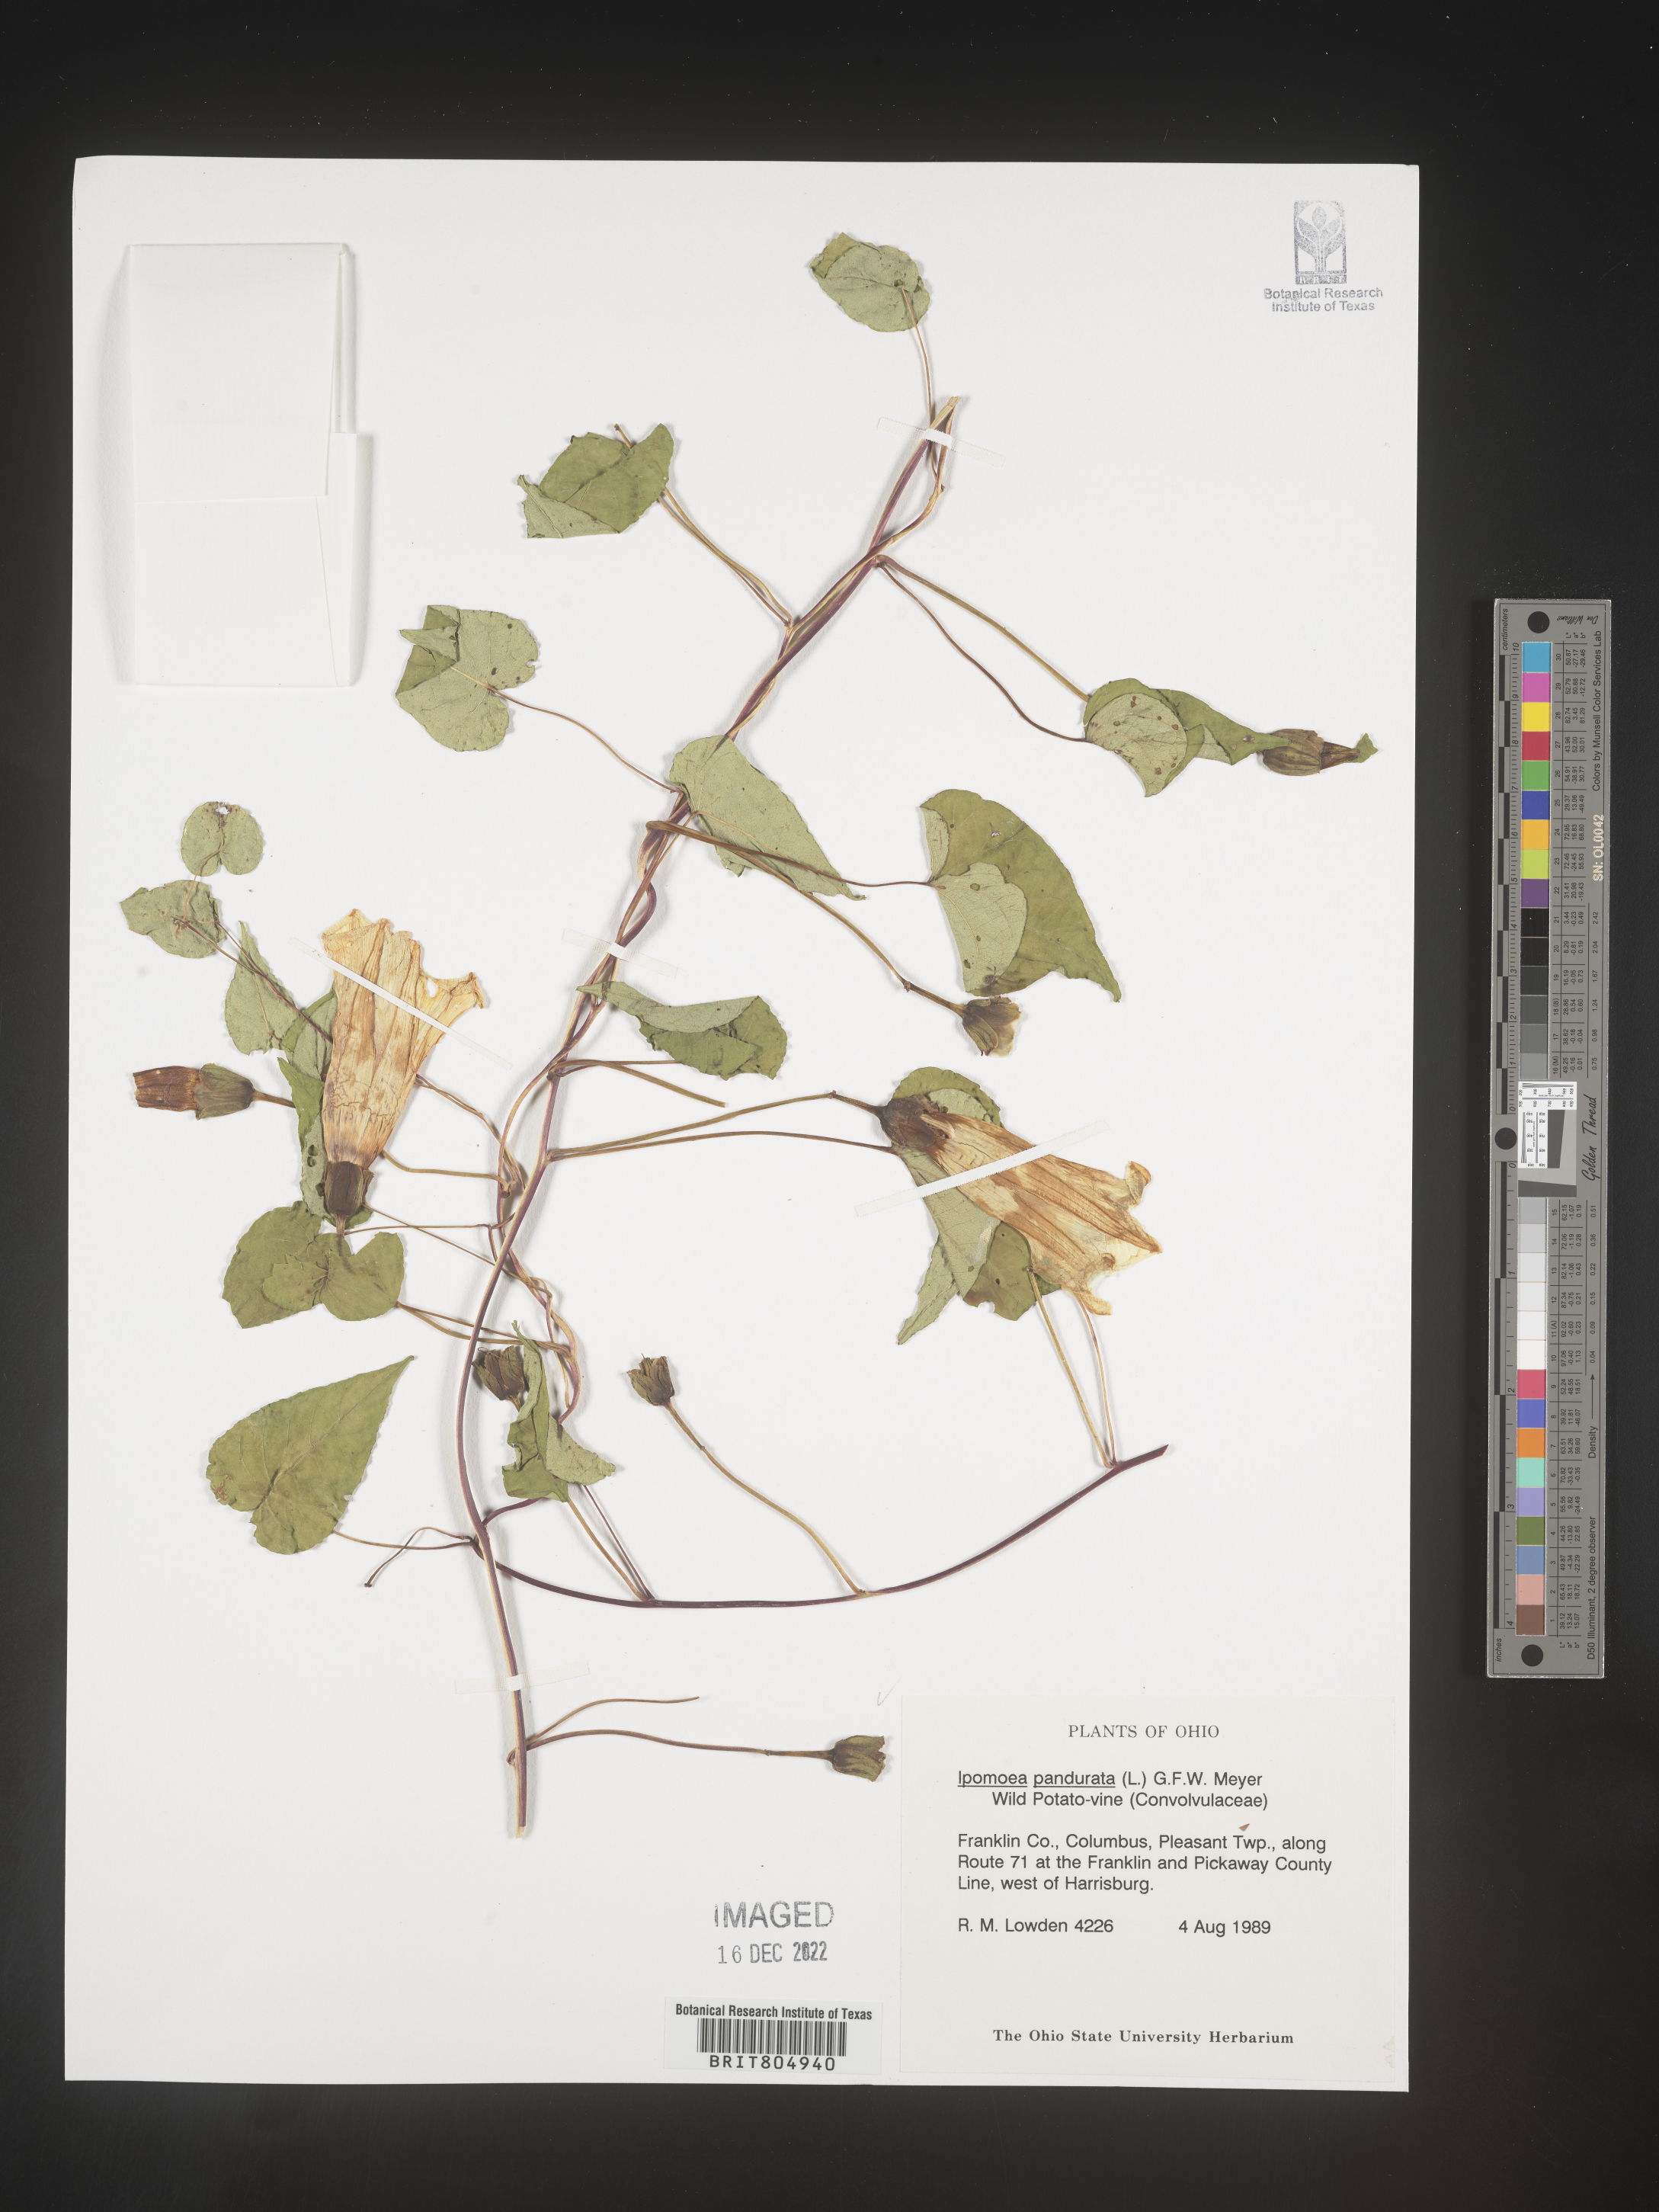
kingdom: Plantae
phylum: Tracheophyta
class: Magnoliopsida
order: Solanales
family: Convolvulaceae
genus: Ipomoea
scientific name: Ipomoea pandurata
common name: Man-of-the-earth
